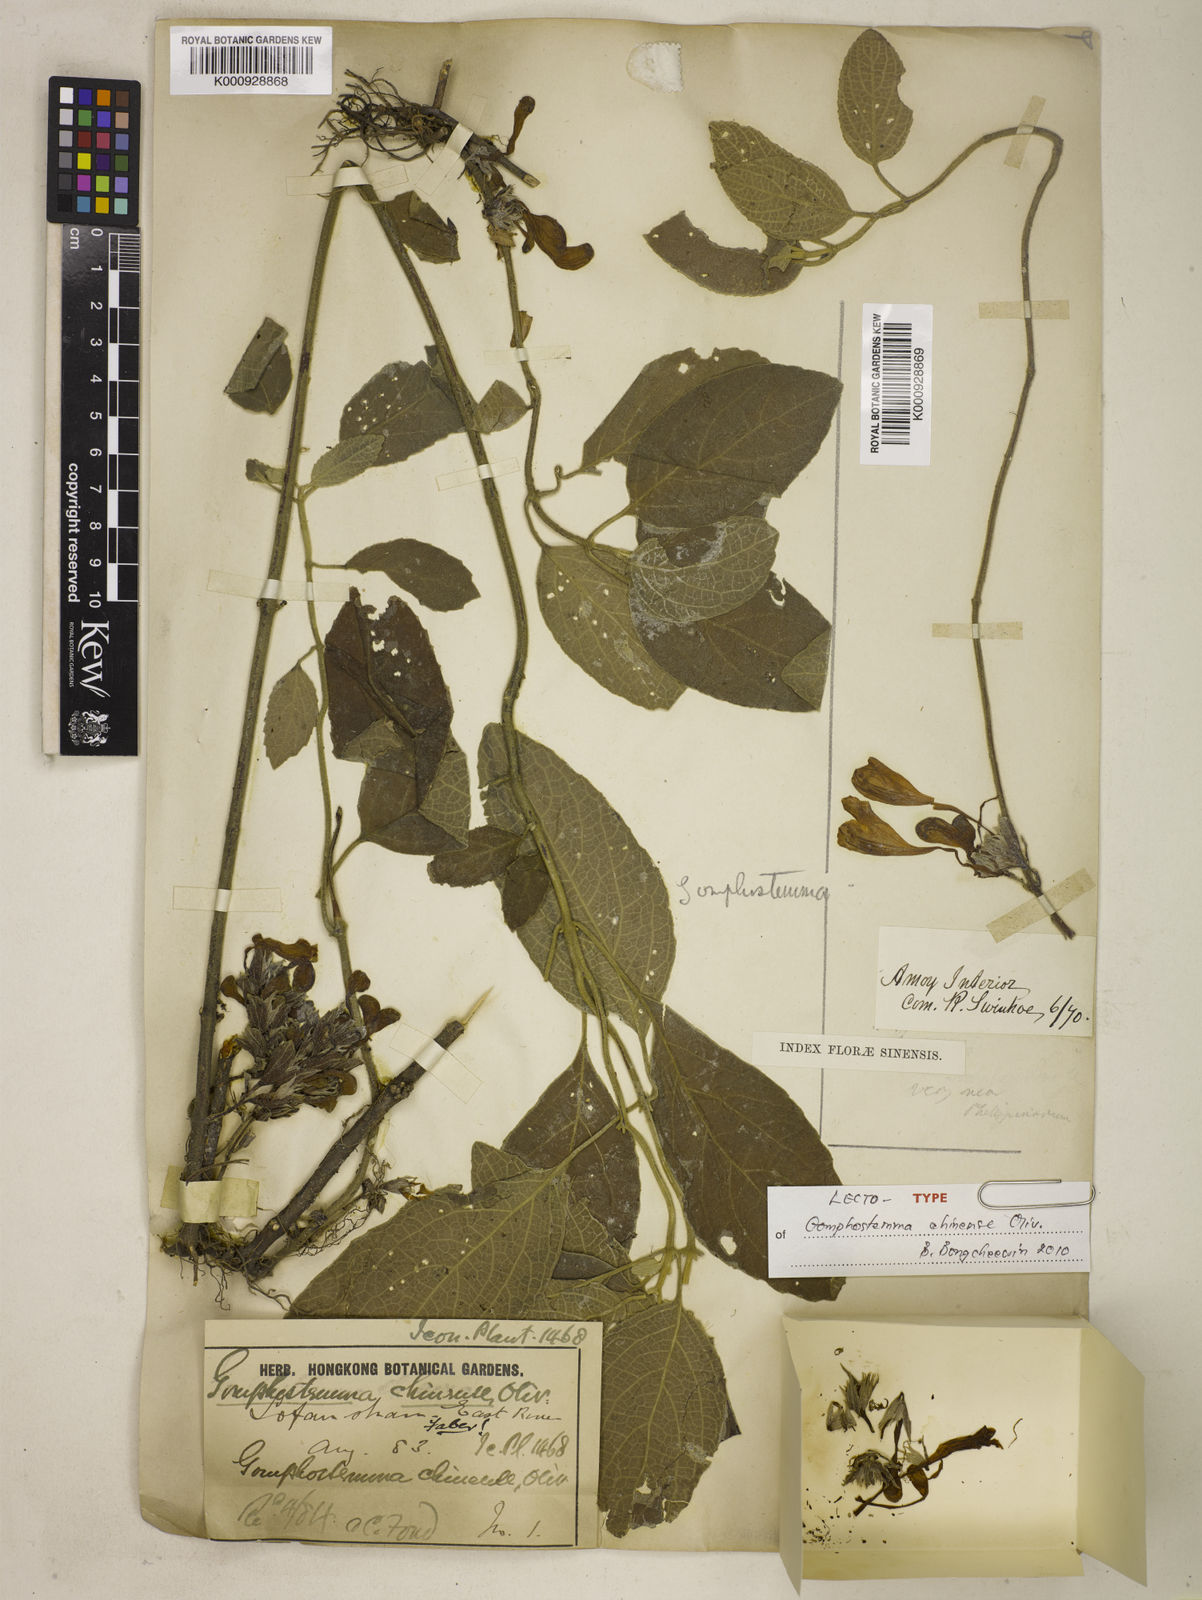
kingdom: Plantae
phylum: Tracheophyta
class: Magnoliopsida
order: Lamiales
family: Lamiaceae
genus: Gomphostemma
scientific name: Gomphostemma chinense
